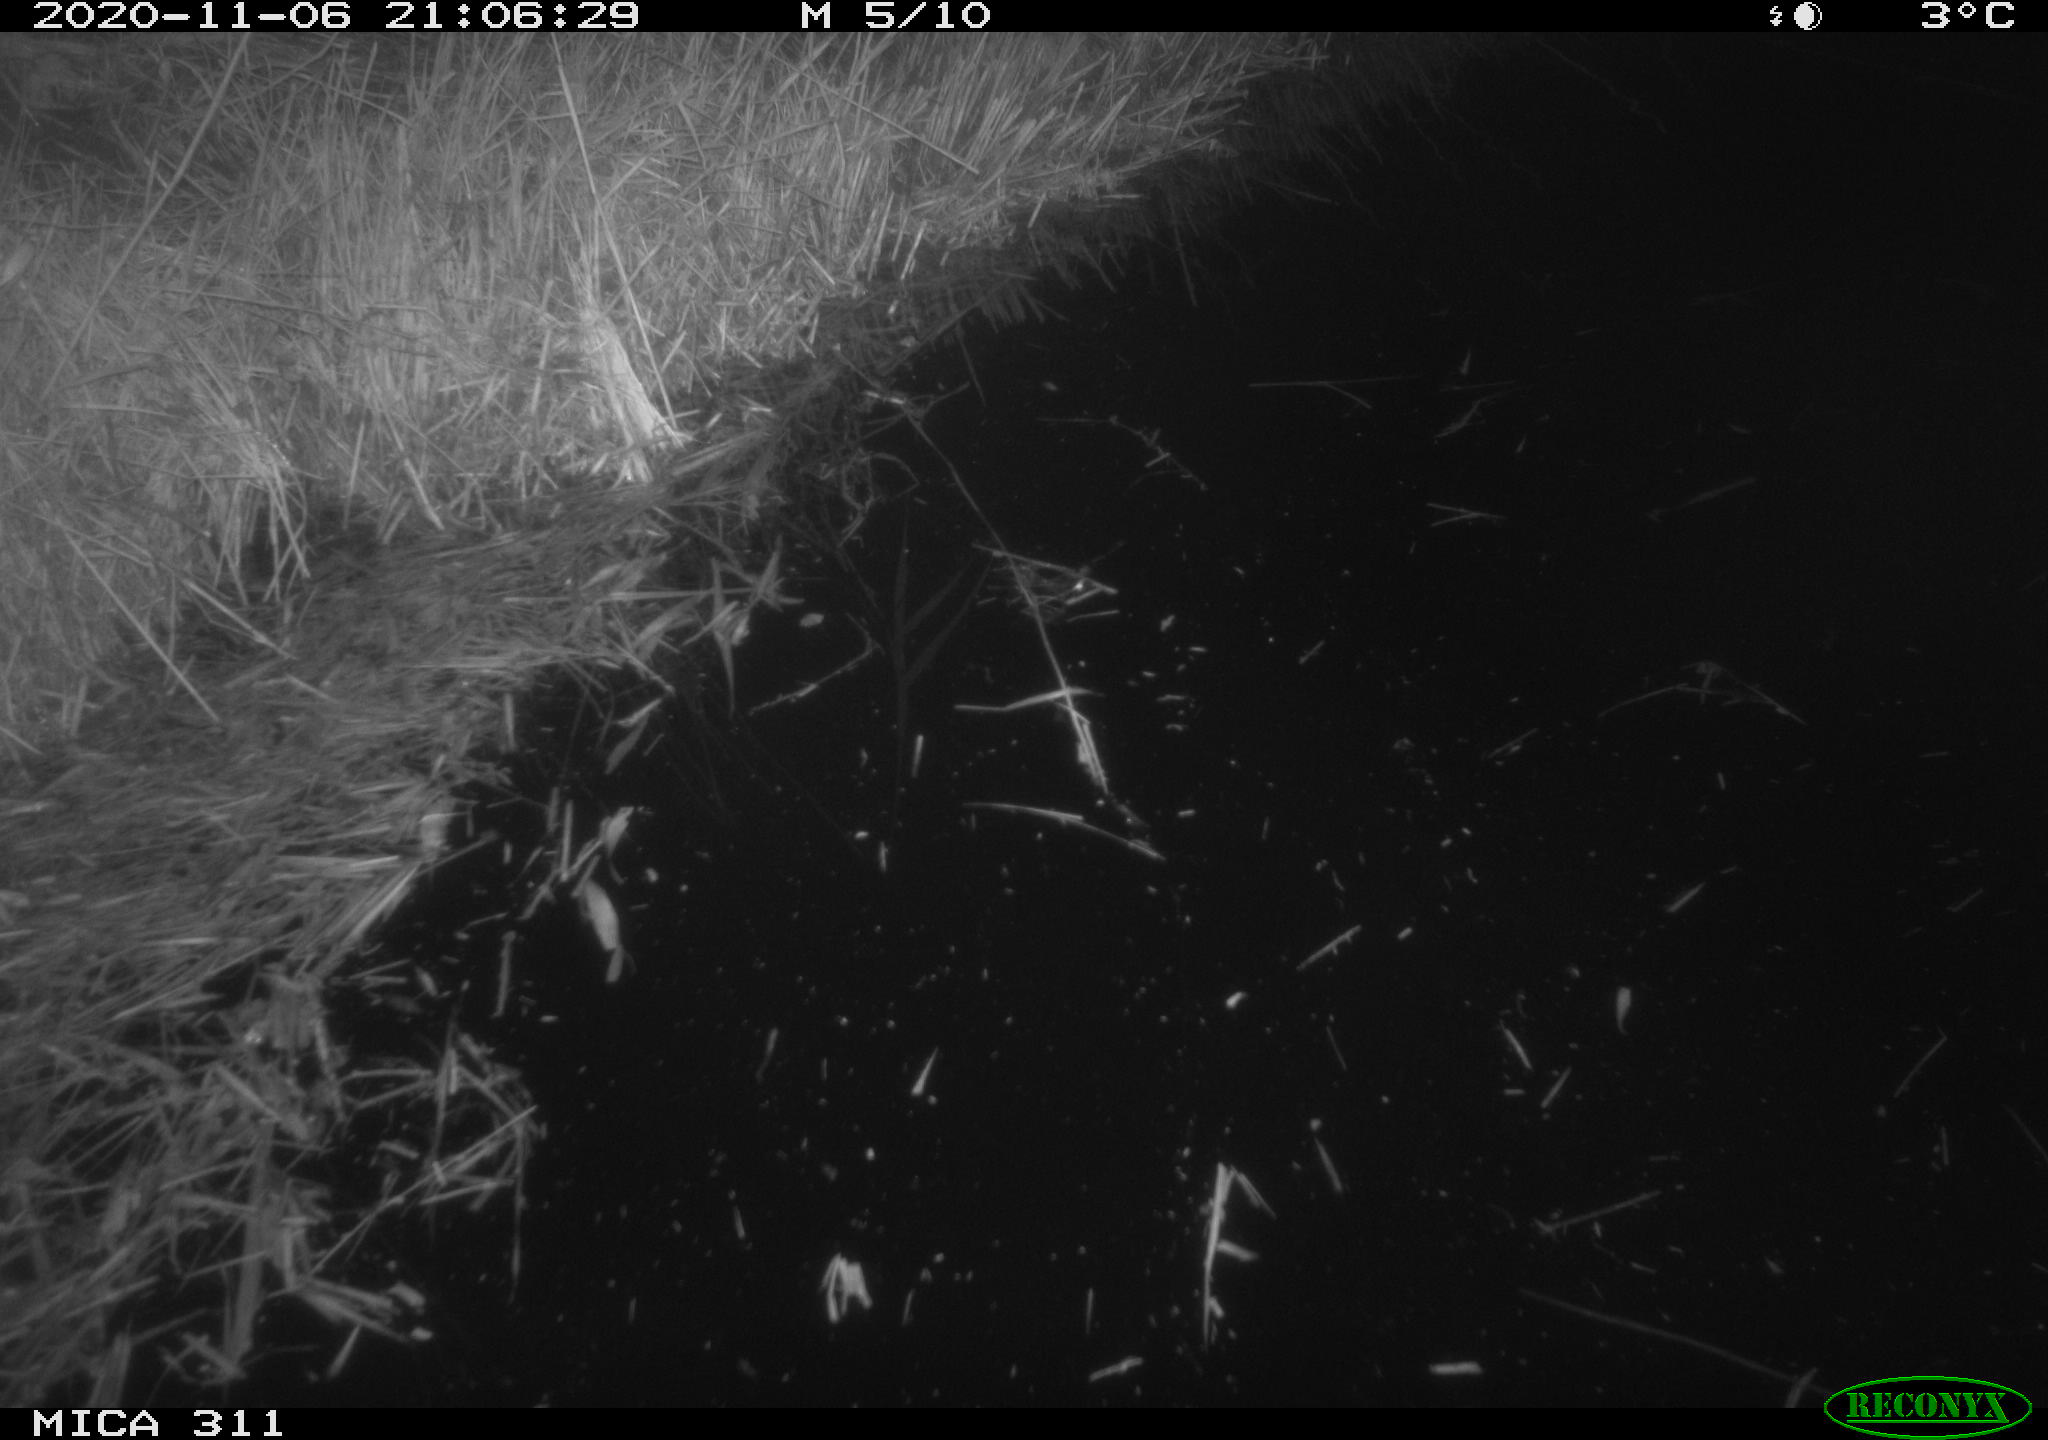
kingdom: Animalia
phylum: Chordata
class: Mammalia
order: Rodentia
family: Muridae
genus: Rattus
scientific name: Rattus norvegicus
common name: Brown rat
